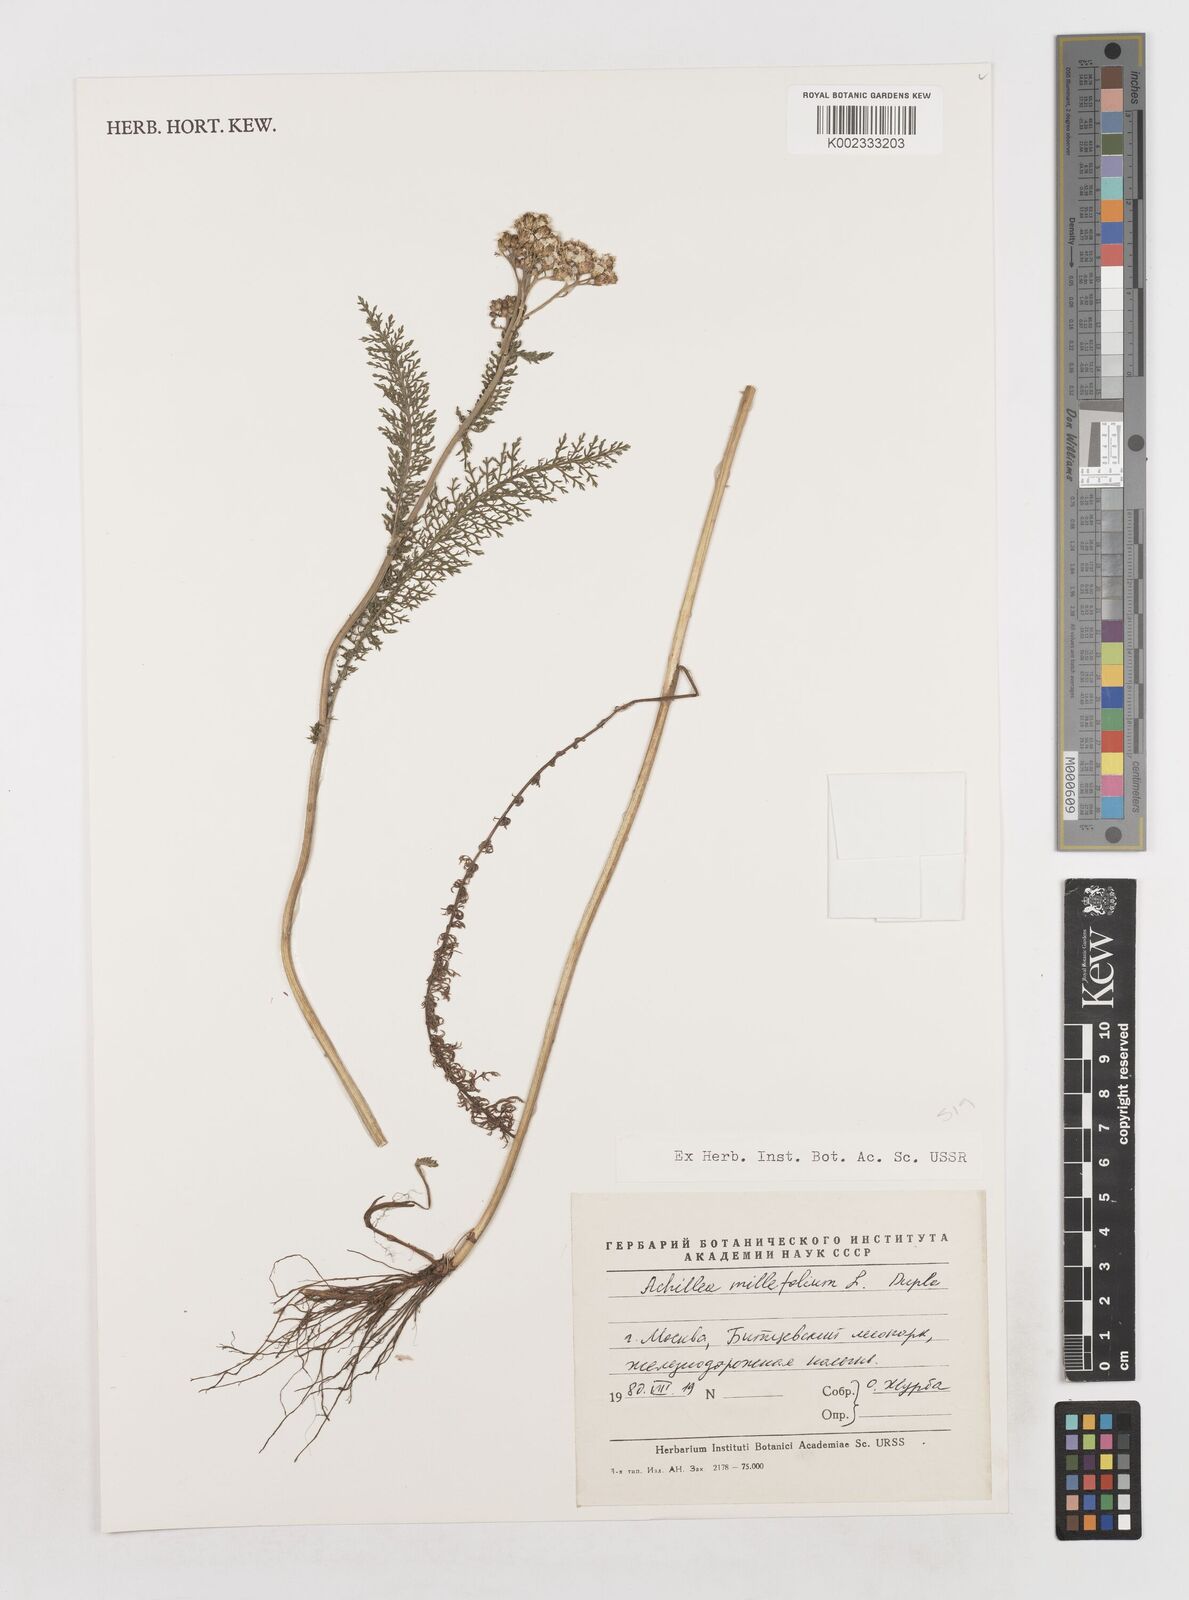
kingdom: Plantae
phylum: Tracheophyta
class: Magnoliopsida
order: Asterales
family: Asteraceae
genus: Achillea
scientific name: Achillea millefolium
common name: Yarrow
